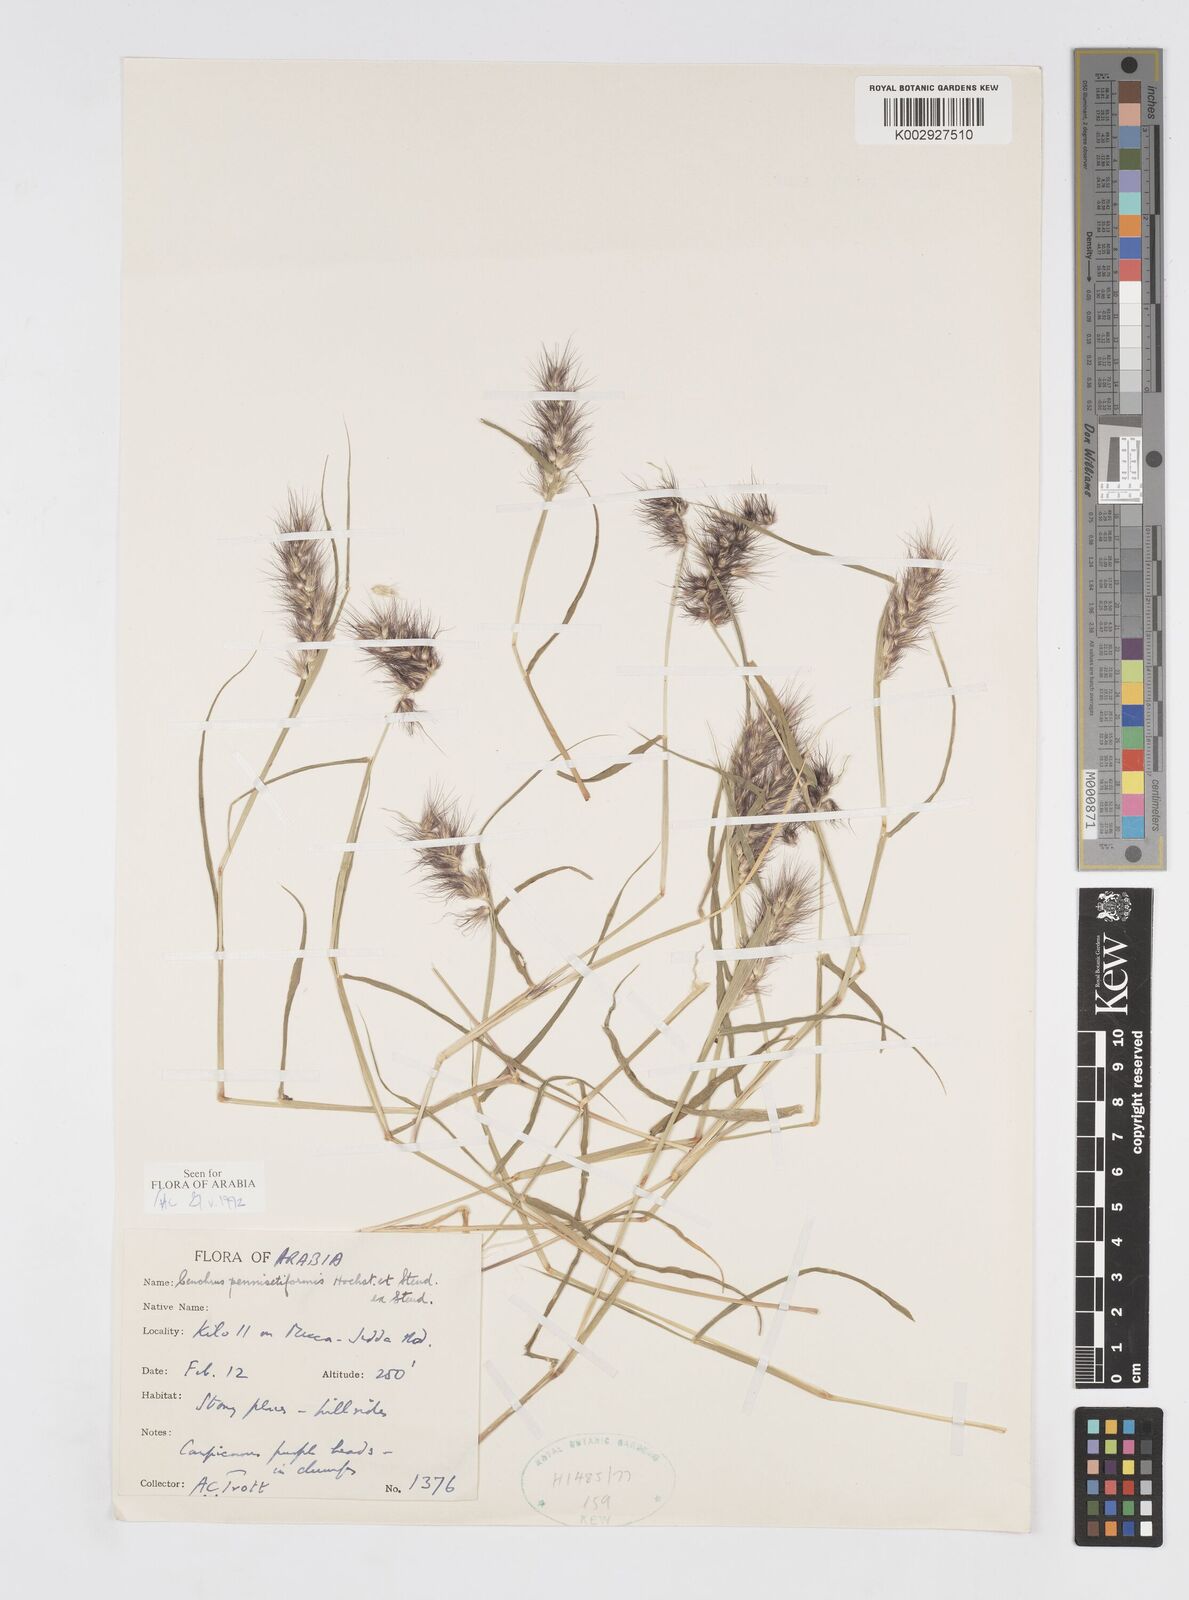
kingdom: Plantae
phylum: Tracheophyta
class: Liliopsida
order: Poales
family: Poaceae
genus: Cenchrus
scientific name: Cenchrus pennisetiformis
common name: Cloncurry
